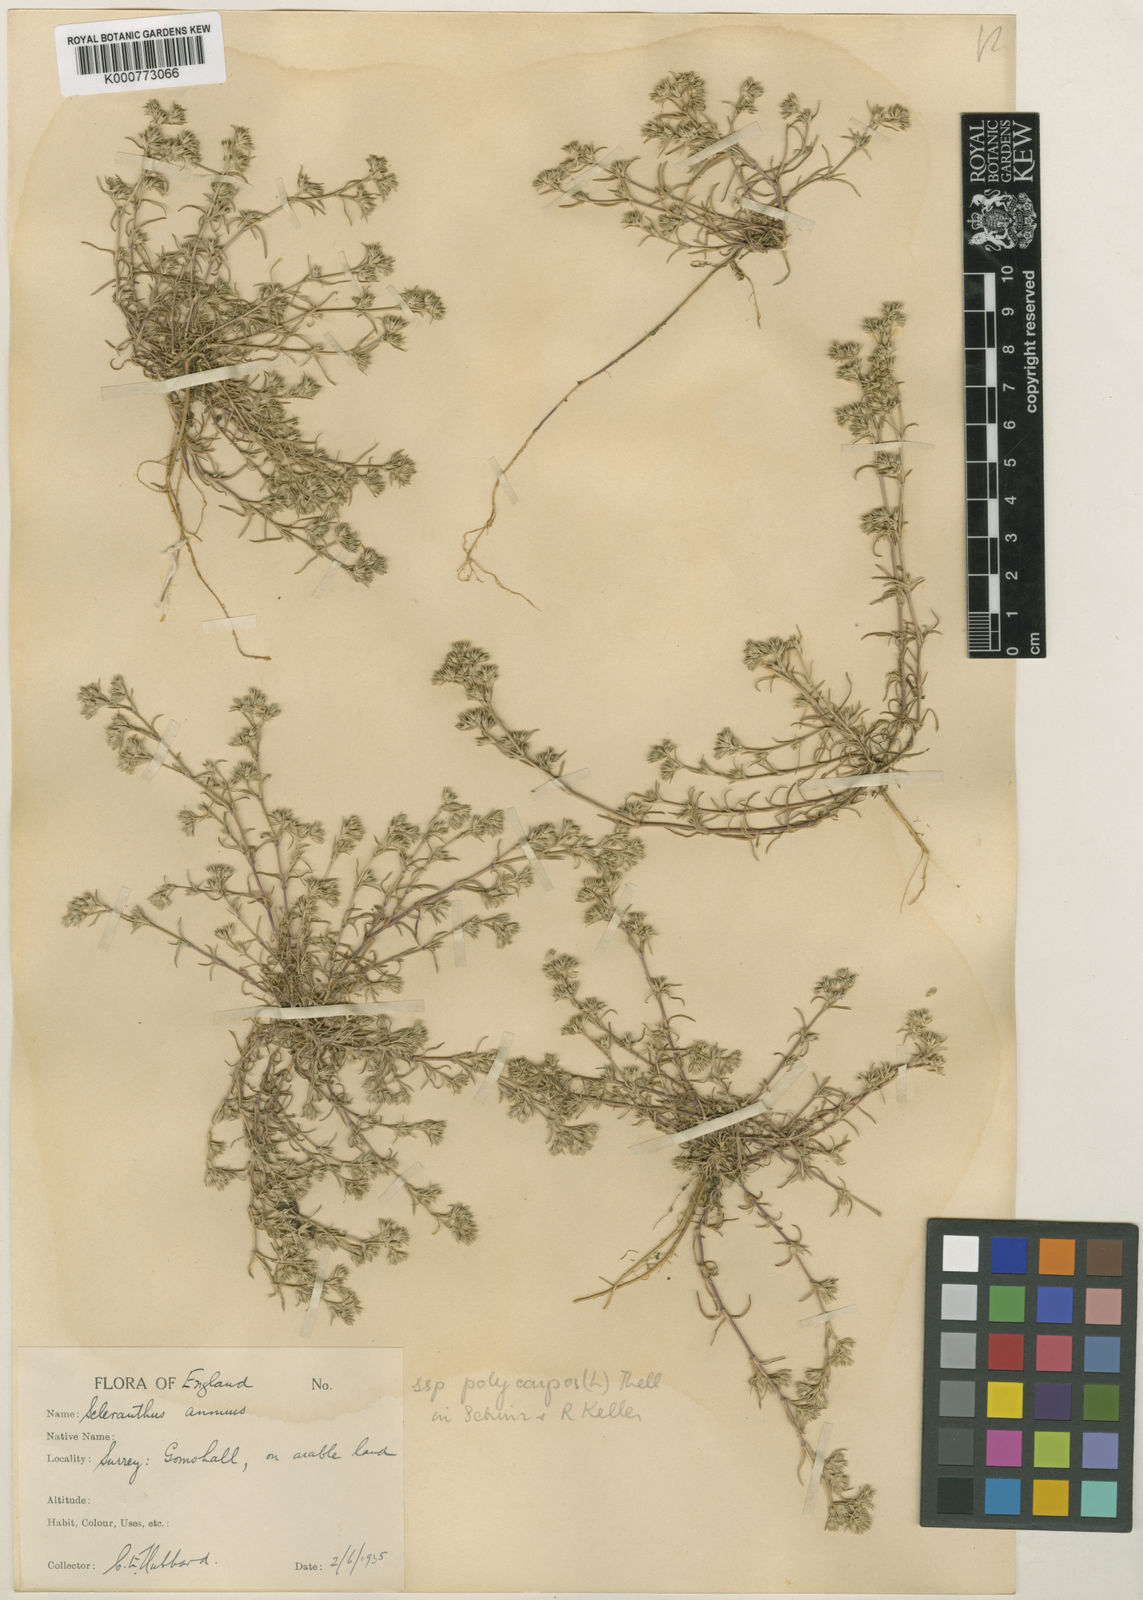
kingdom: Plantae
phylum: Tracheophyta
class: Magnoliopsida
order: Caryophyllales
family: Caryophyllaceae
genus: Scleranthus
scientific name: Scleranthus annuus
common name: Annual knawel
